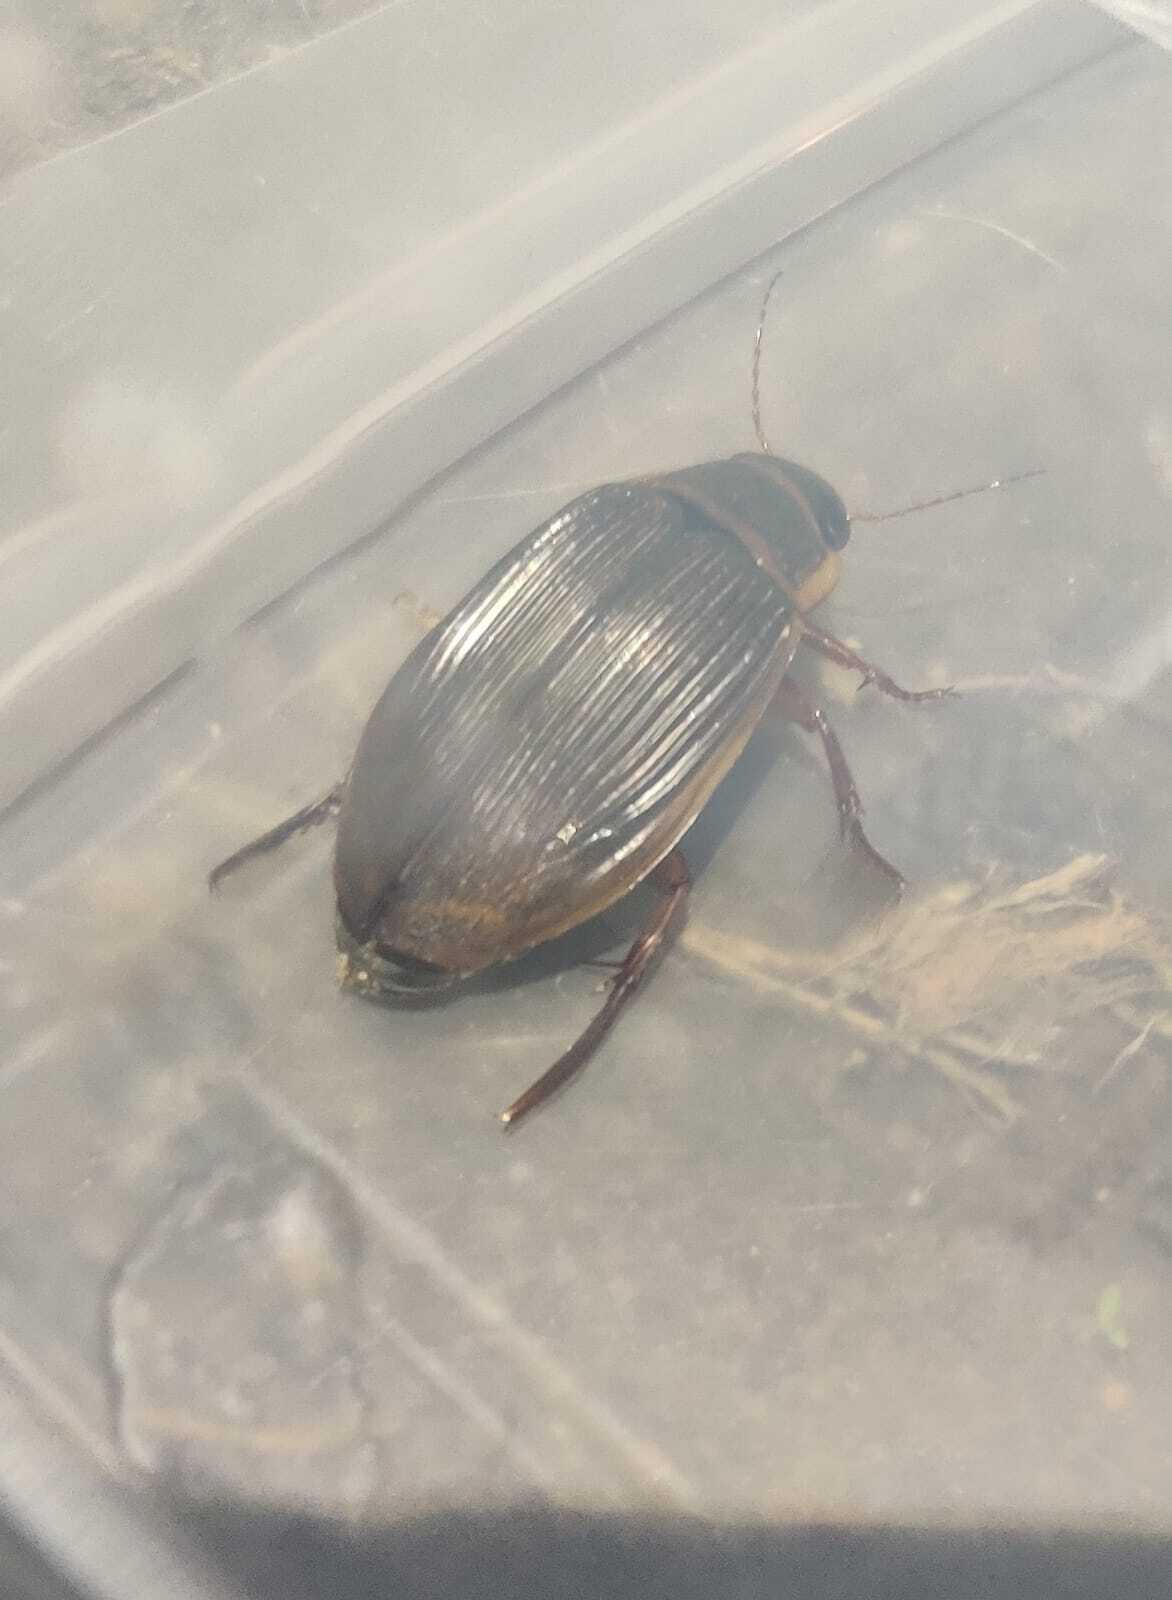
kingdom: Animalia
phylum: Arthropoda
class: Insecta
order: Coleoptera
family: Dytiscidae
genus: Dytiscus
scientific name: Dytiscus latissimus
